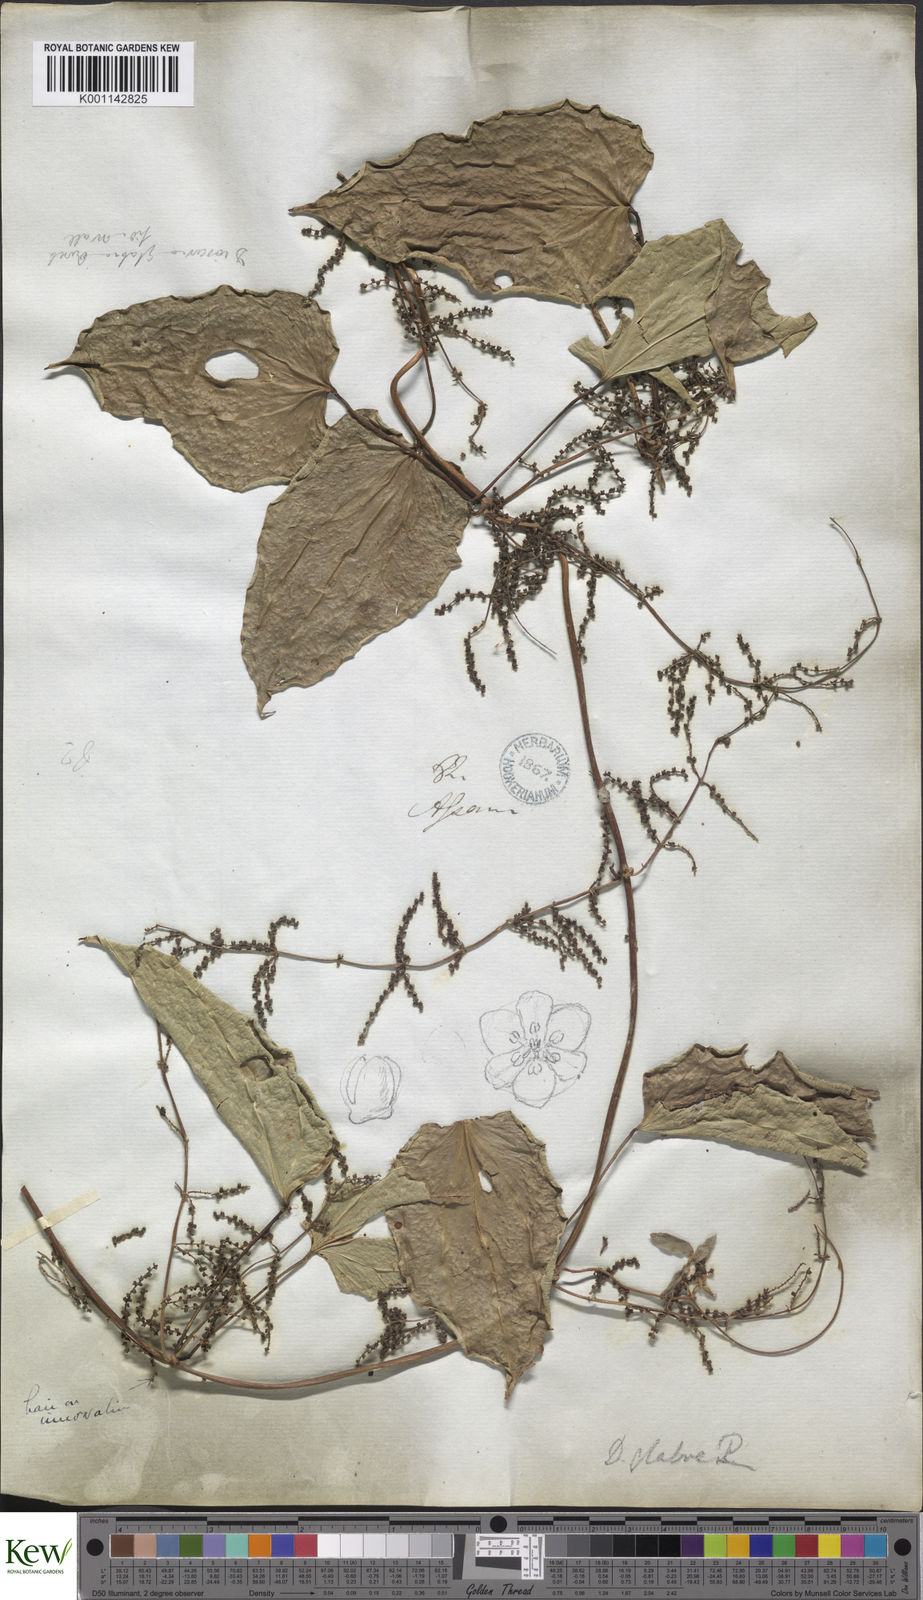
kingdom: Plantae
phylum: Tracheophyta
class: Liliopsida
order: Dioscoreales
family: Dioscoreaceae
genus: Dioscorea
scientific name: Dioscorea glabra
